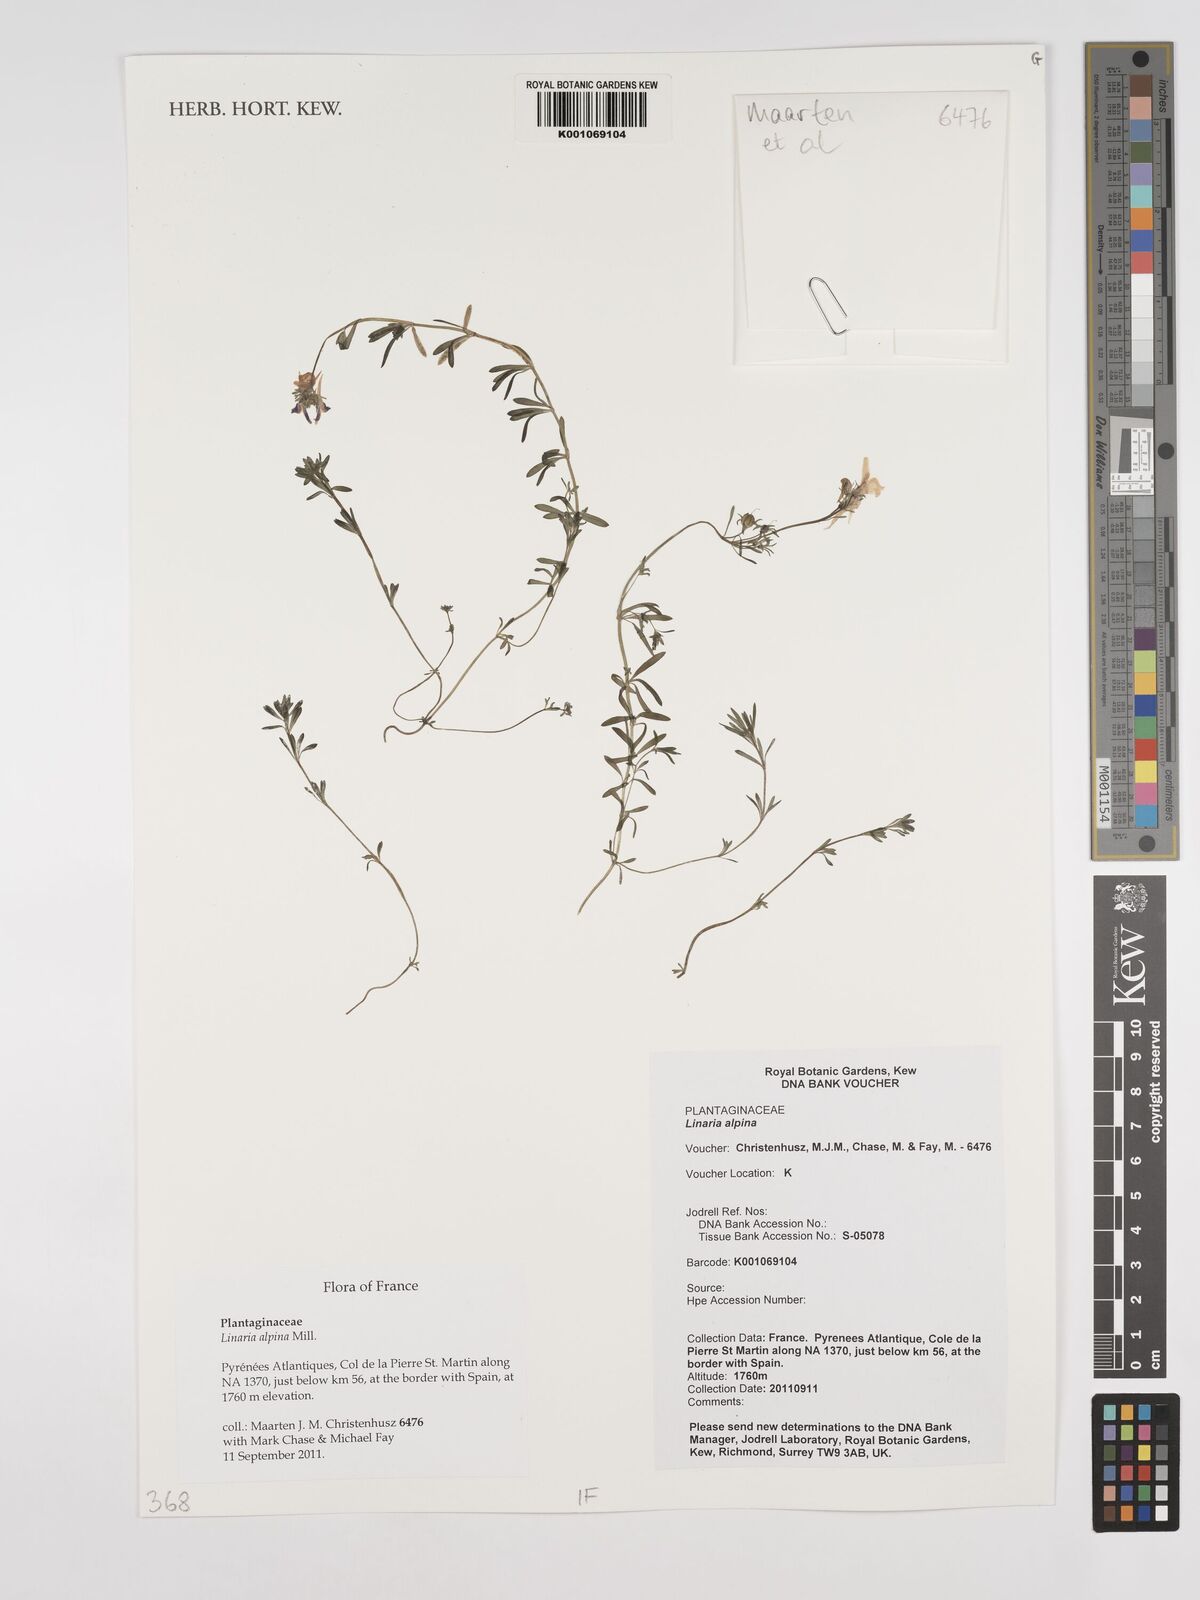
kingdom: Plantae
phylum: Tracheophyta
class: Magnoliopsida
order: Lamiales
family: Plantaginaceae
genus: Linaria
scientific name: Linaria alpina
